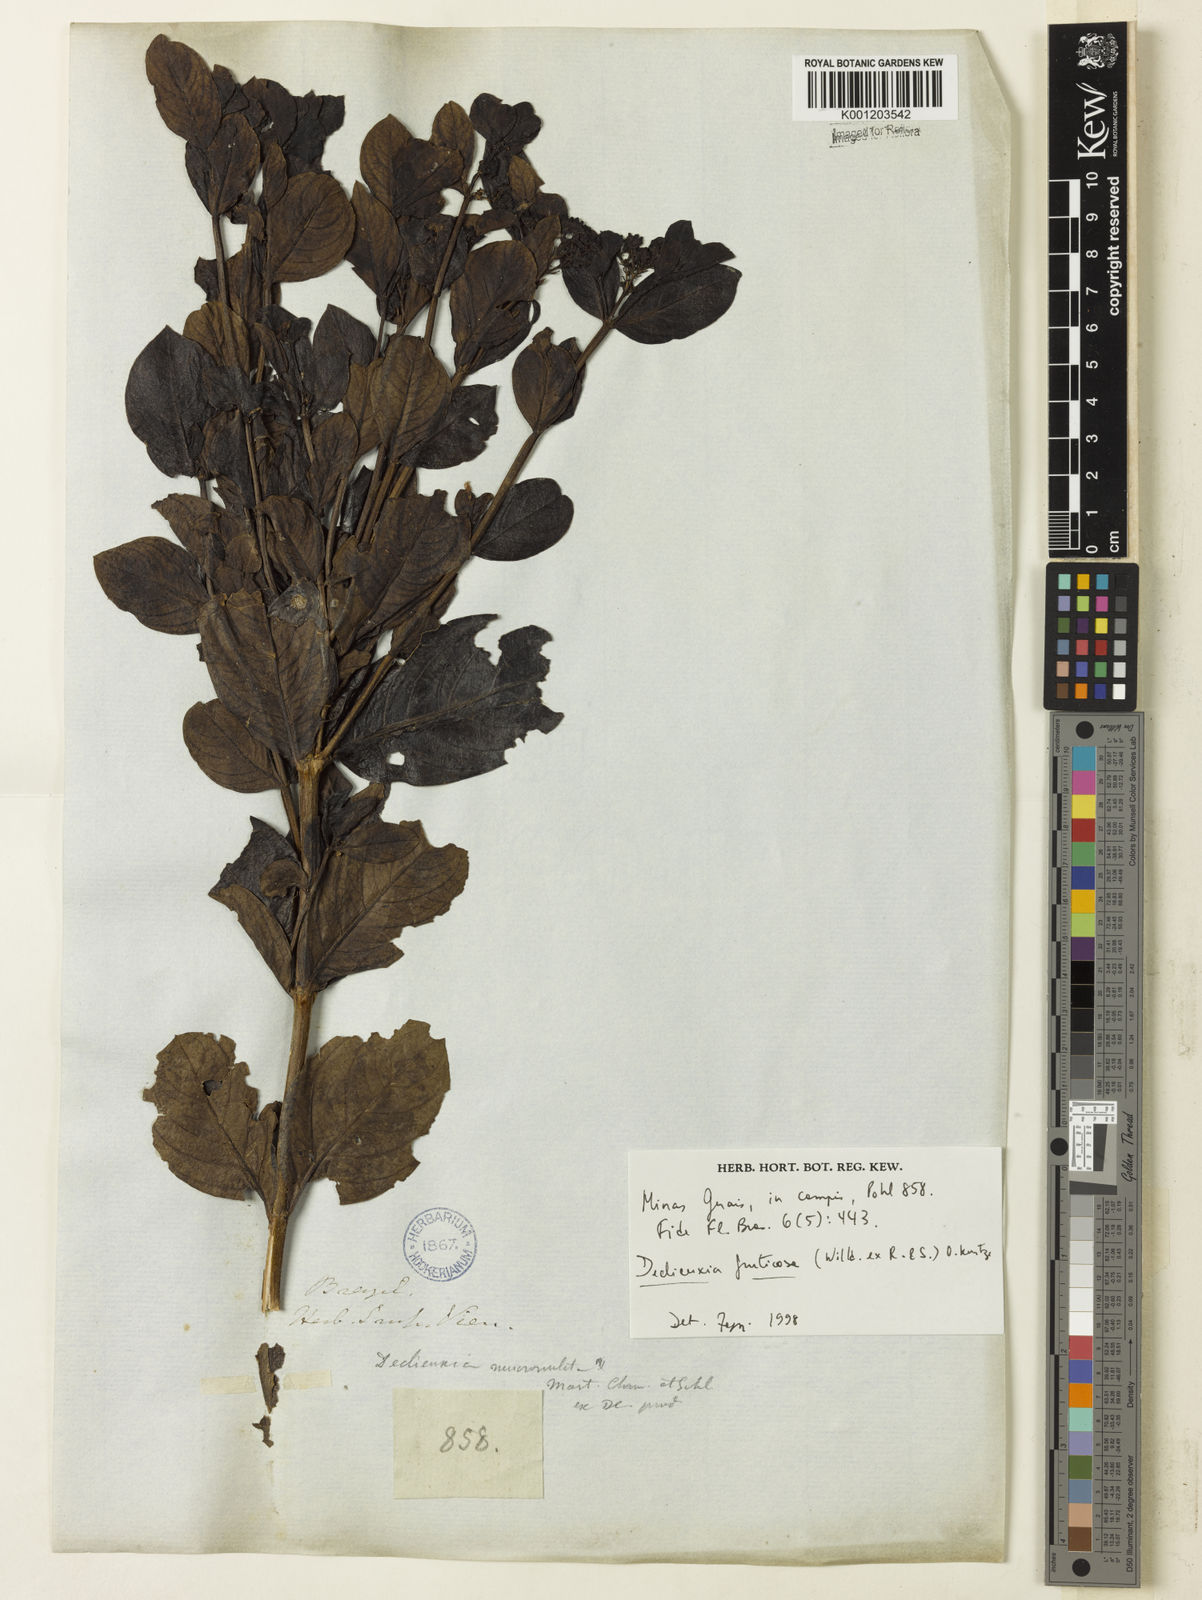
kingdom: Plantae
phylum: Tracheophyta
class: Magnoliopsida
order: Gentianales
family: Rubiaceae
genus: Declieuxia
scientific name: Declieuxia fruticosa
